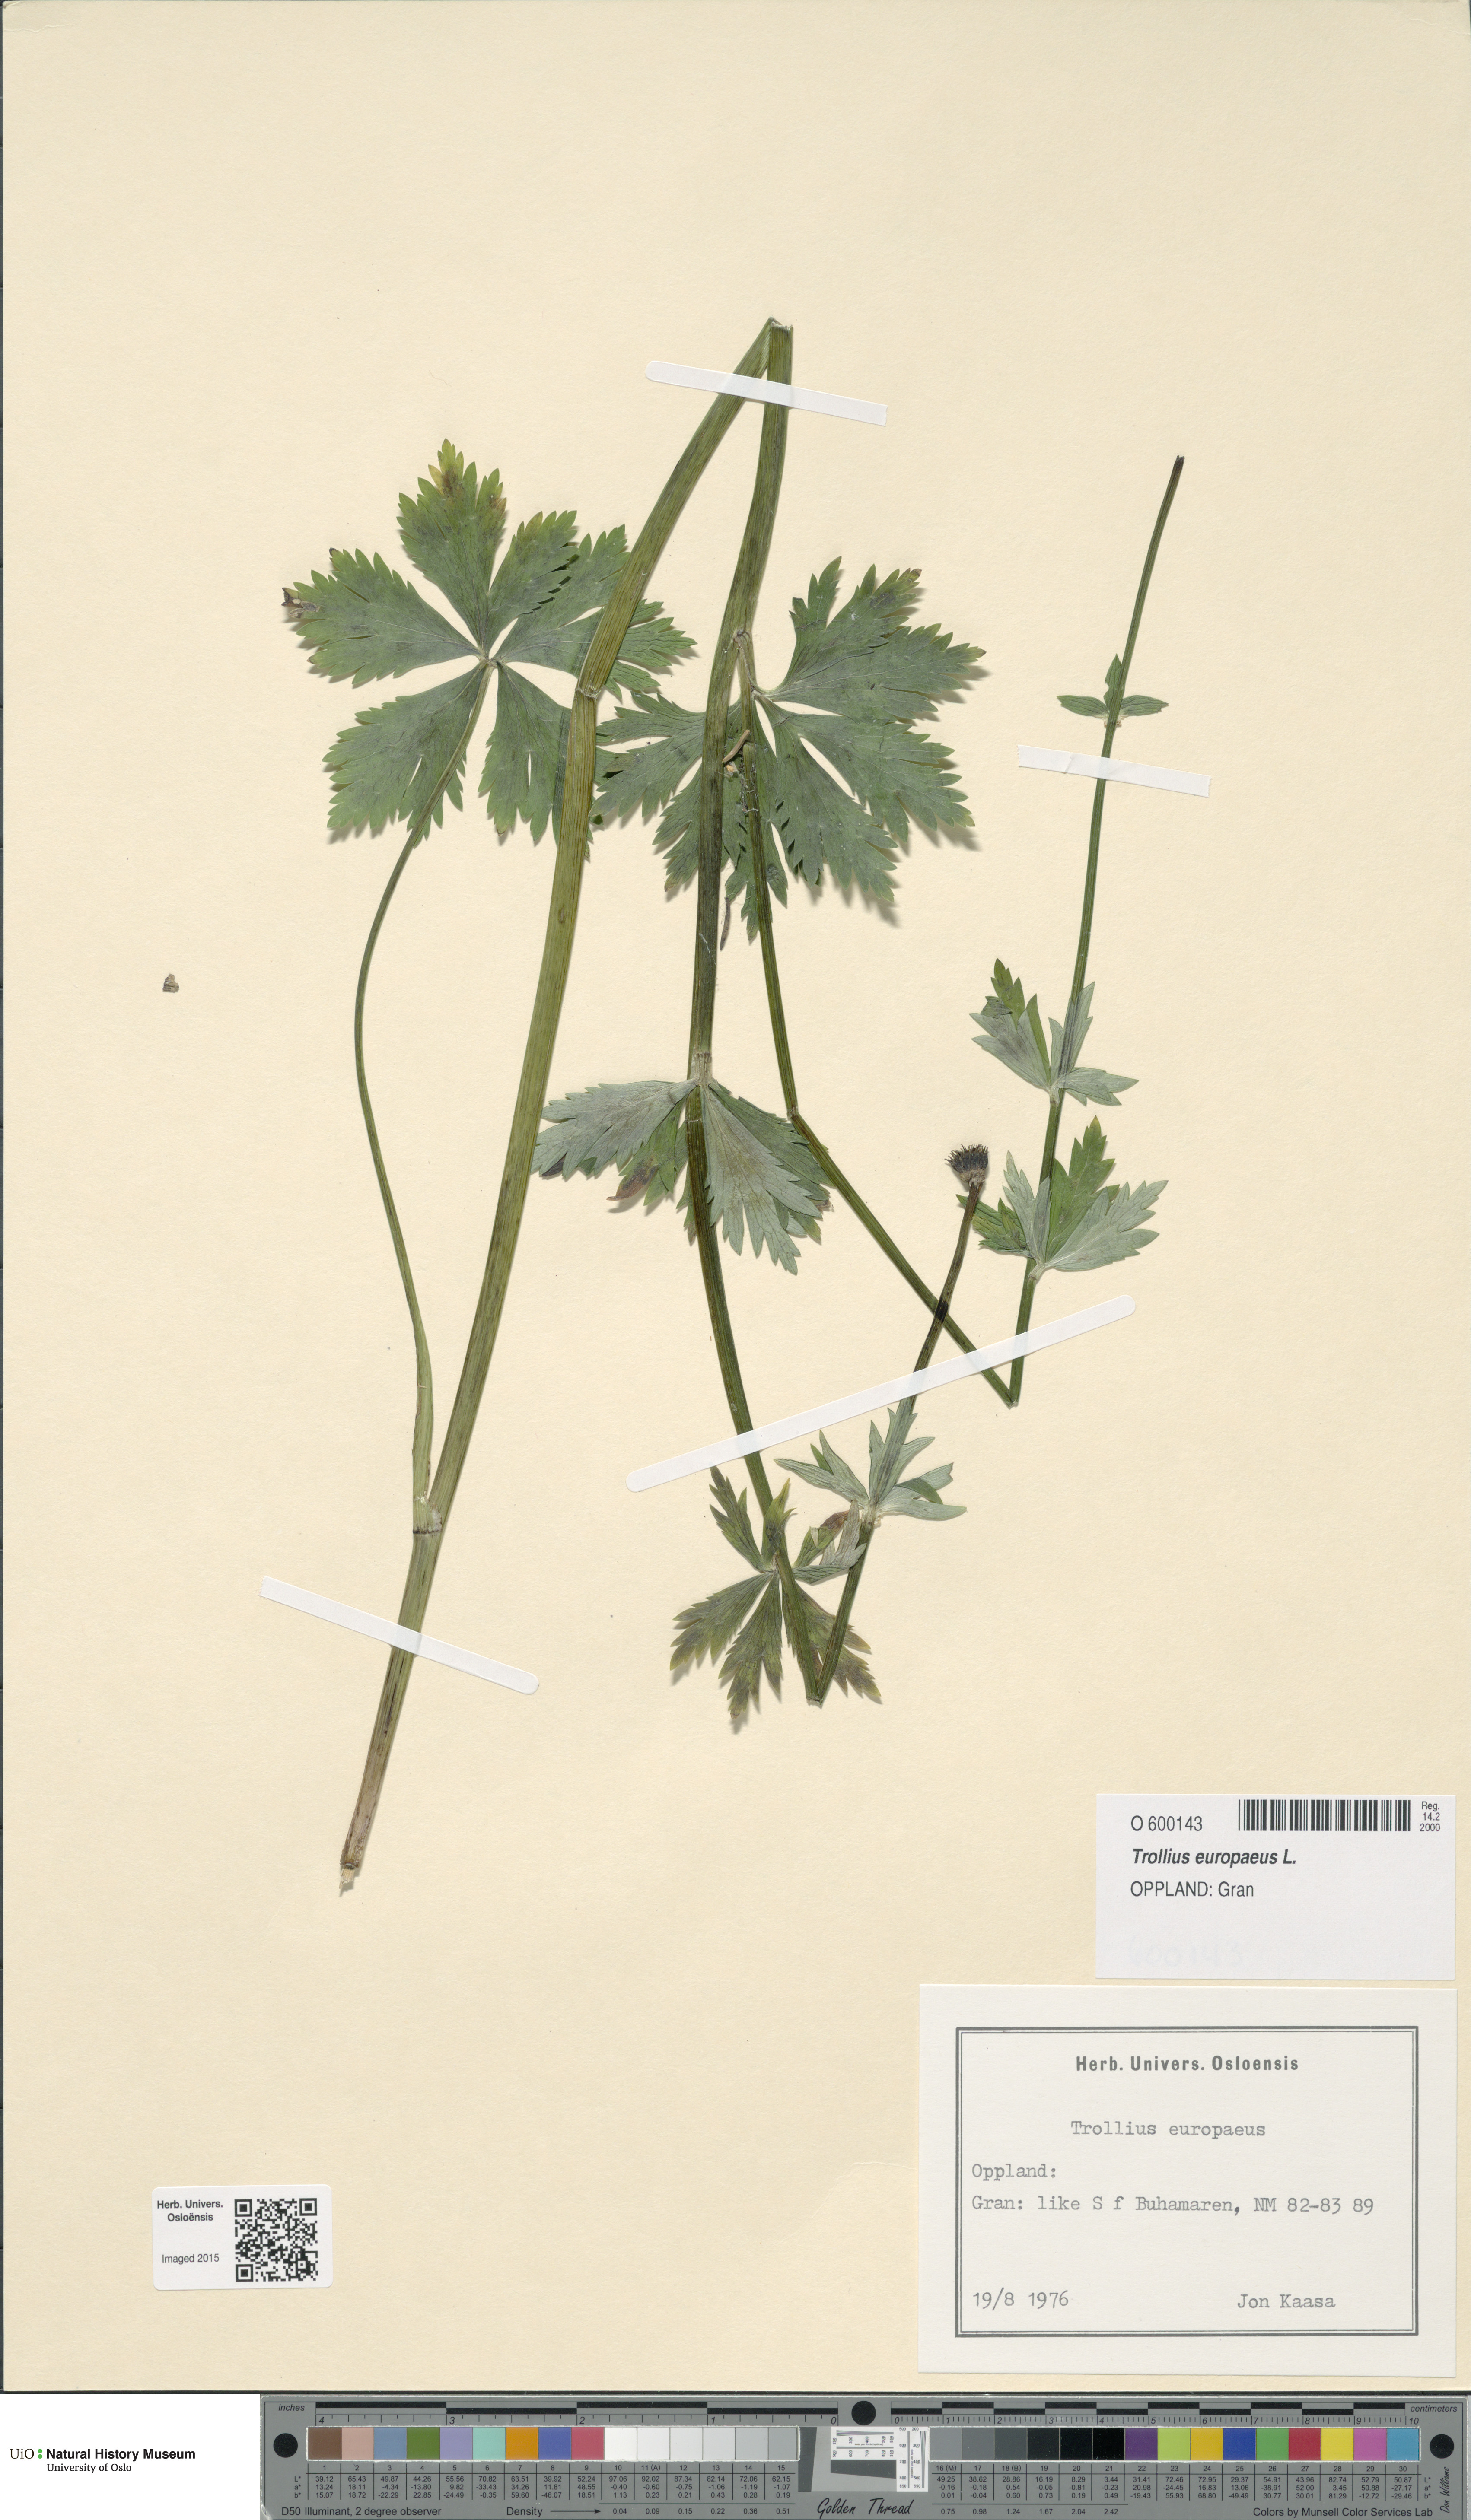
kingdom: Plantae
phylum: Tracheophyta
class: Magnoliopsida
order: Ranunculales
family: Ranunculaceae
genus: Trollius
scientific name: Trollius europaeus
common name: European globeflower
